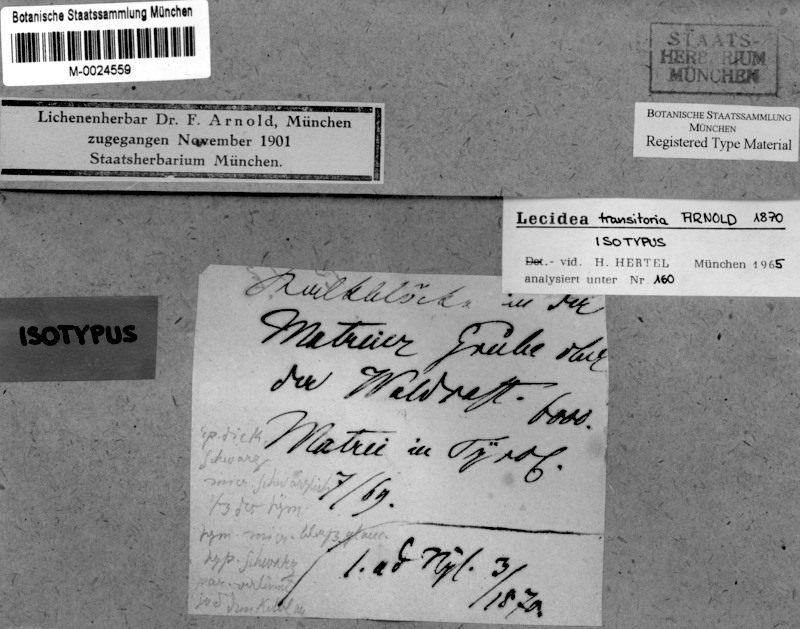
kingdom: Fungi
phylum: Ascomycota
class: Lecanoromycetes
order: Lecideales
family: Lecideaceae
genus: Melanolecia
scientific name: Melanolecia transitoria
